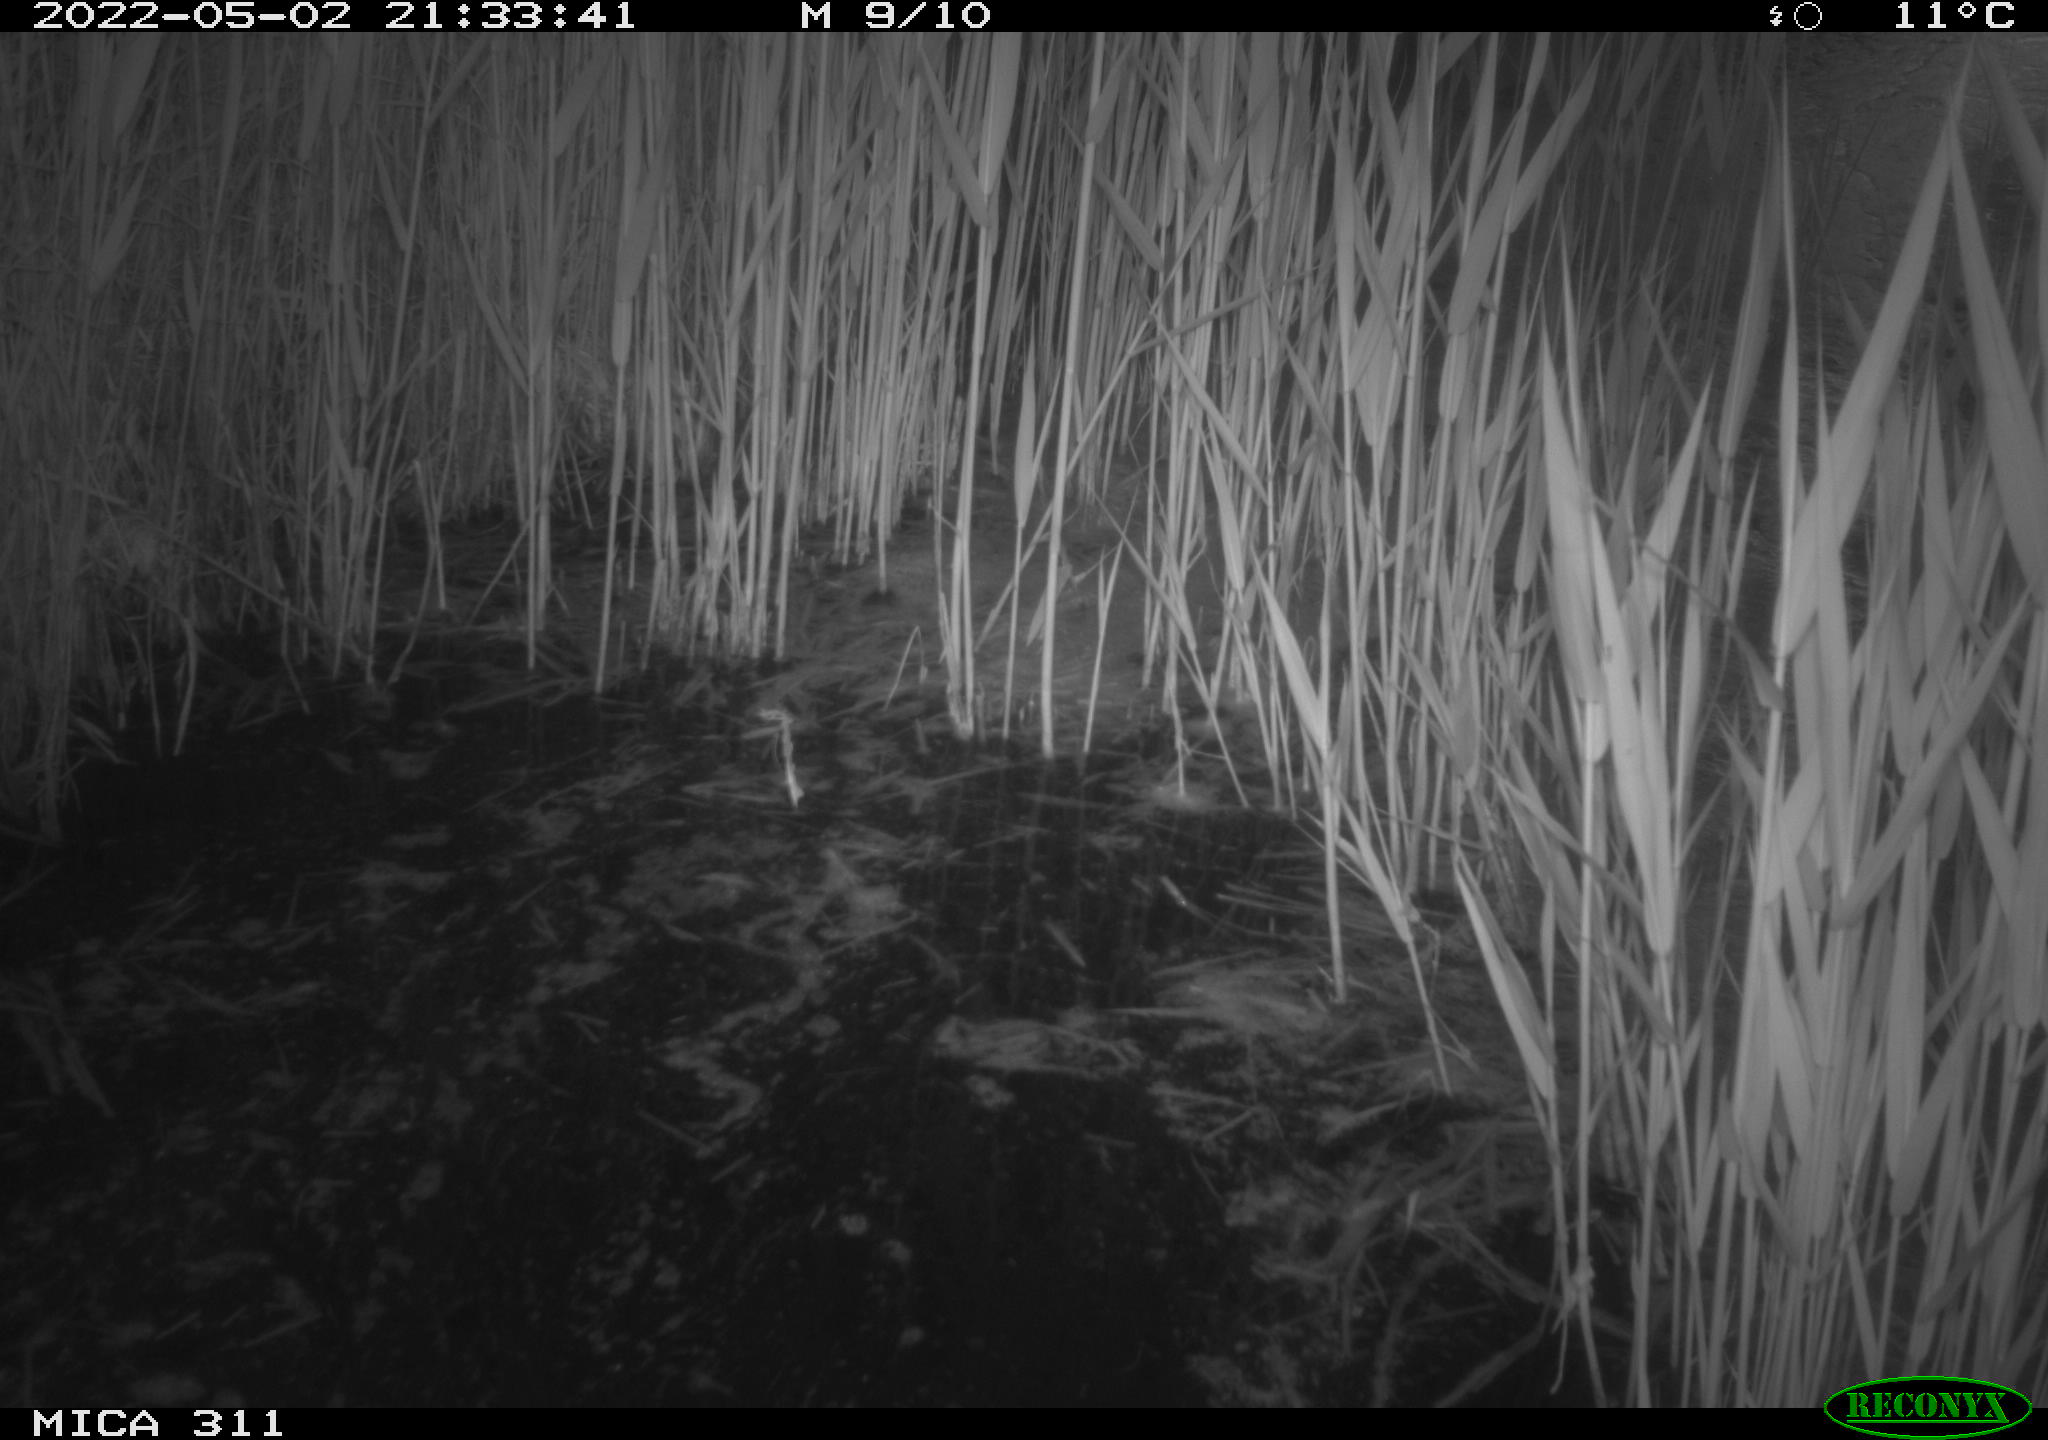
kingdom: Animalia
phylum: Chordata
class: Aves
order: Anseriformes
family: Anatidae
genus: Anas
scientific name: Anas platyrhynchos
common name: Mallard
